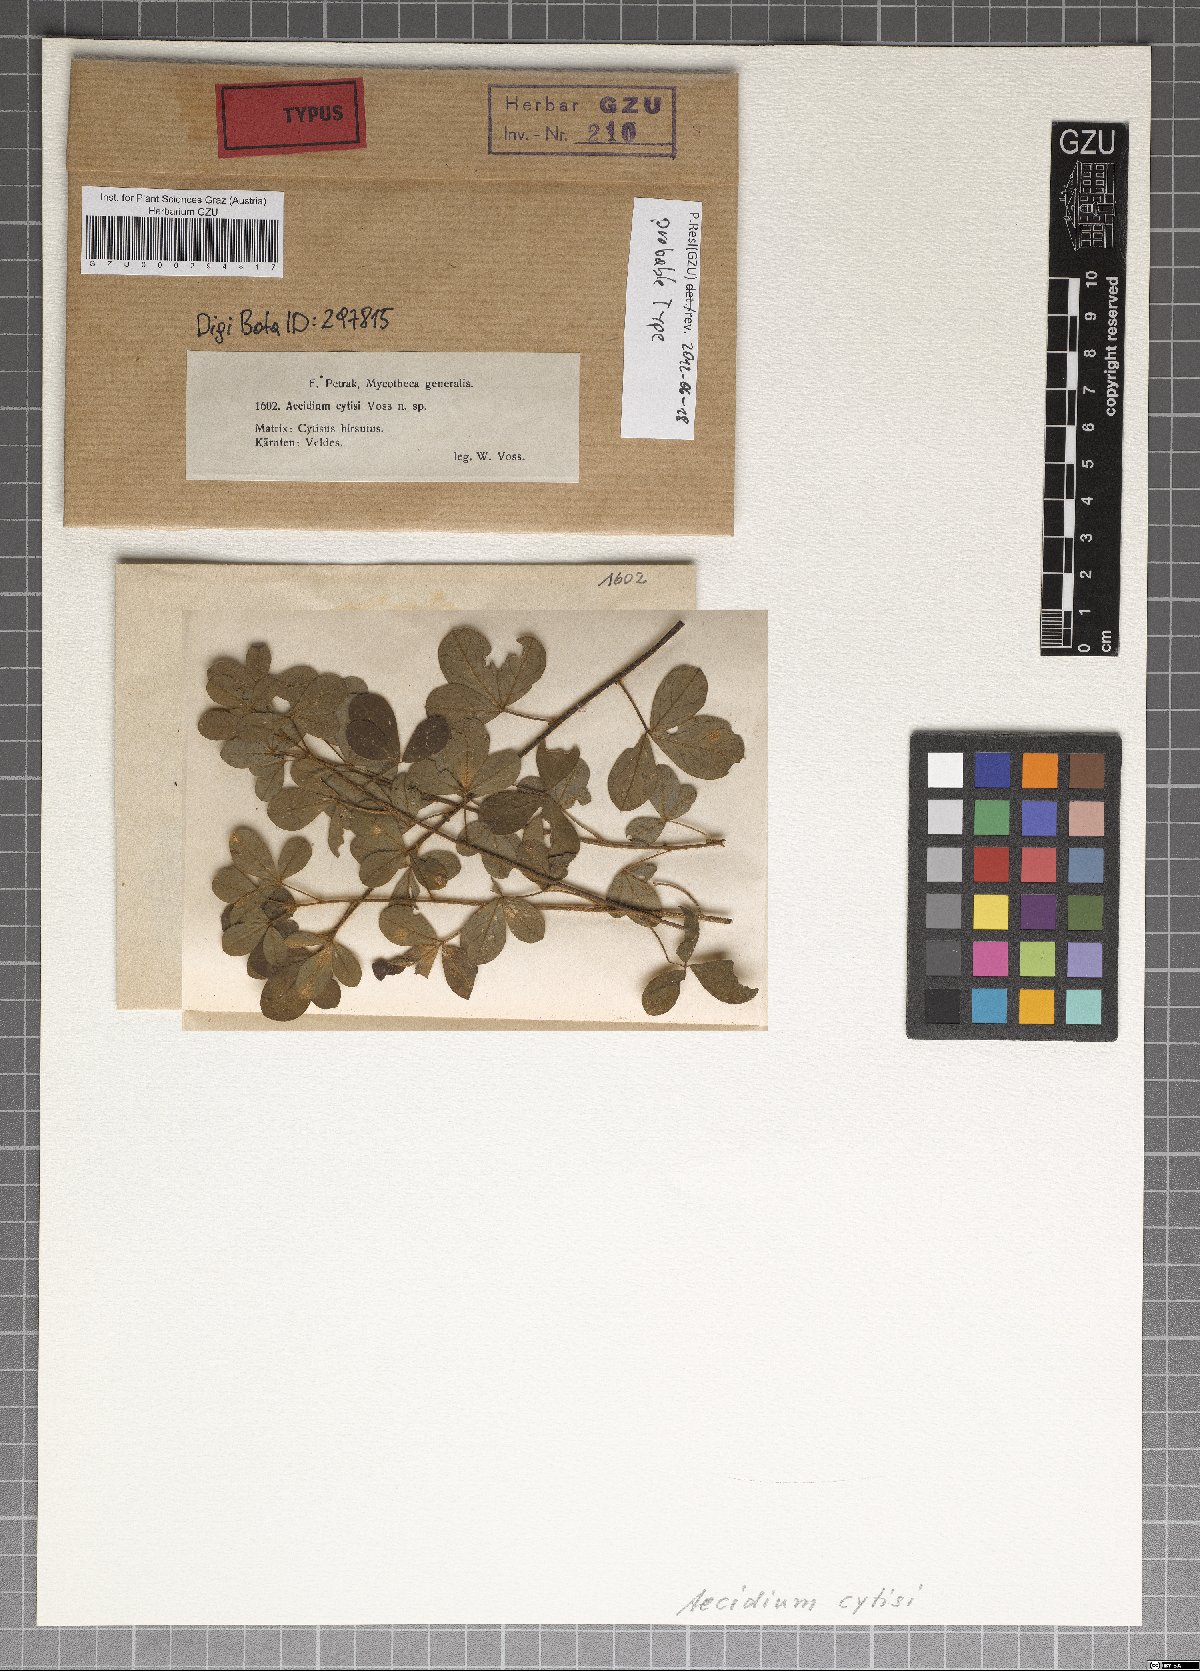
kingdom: Fungi
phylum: Basidiomycota
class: Pucciniomycetes
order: Pucciniales
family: Pucciniaceae
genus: Uromyces
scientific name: Uromyces cytisi
